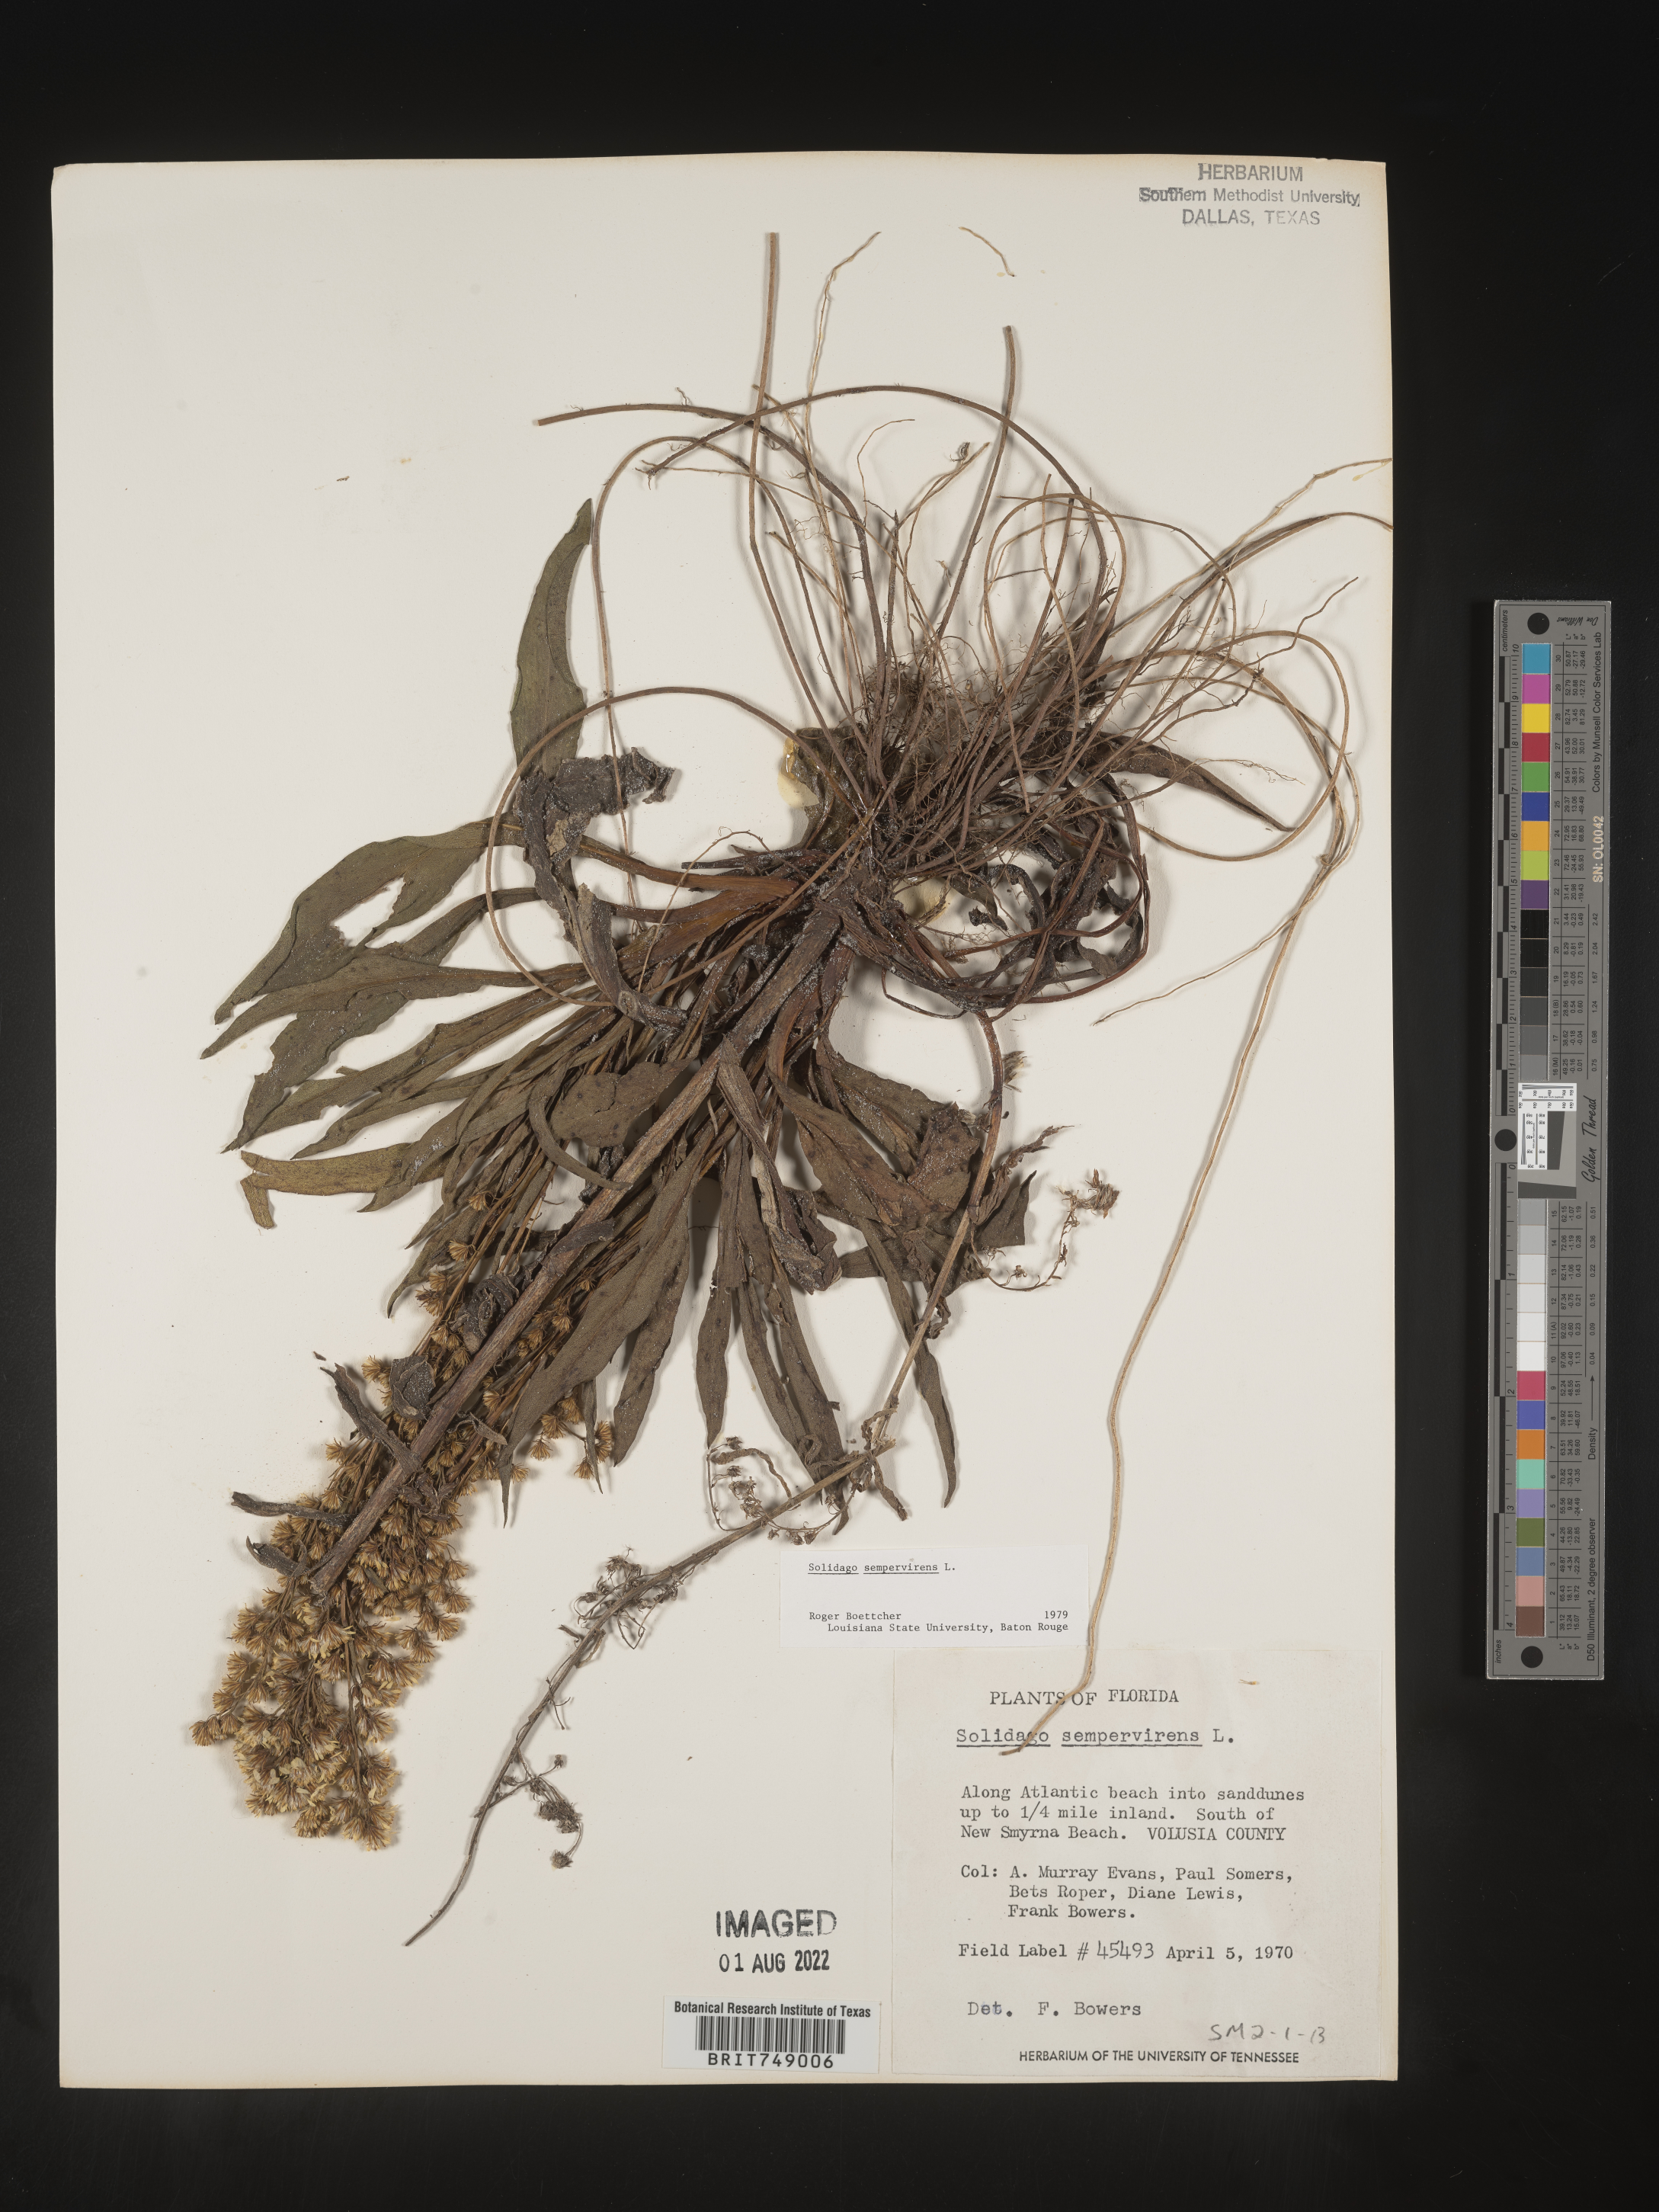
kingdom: Plantae
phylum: Tracheophyta
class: Magnoliopsida
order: Asterales
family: Asteraceae
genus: Solidago
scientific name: Solidago sempervirens
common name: Salt-marsh goldenrod
